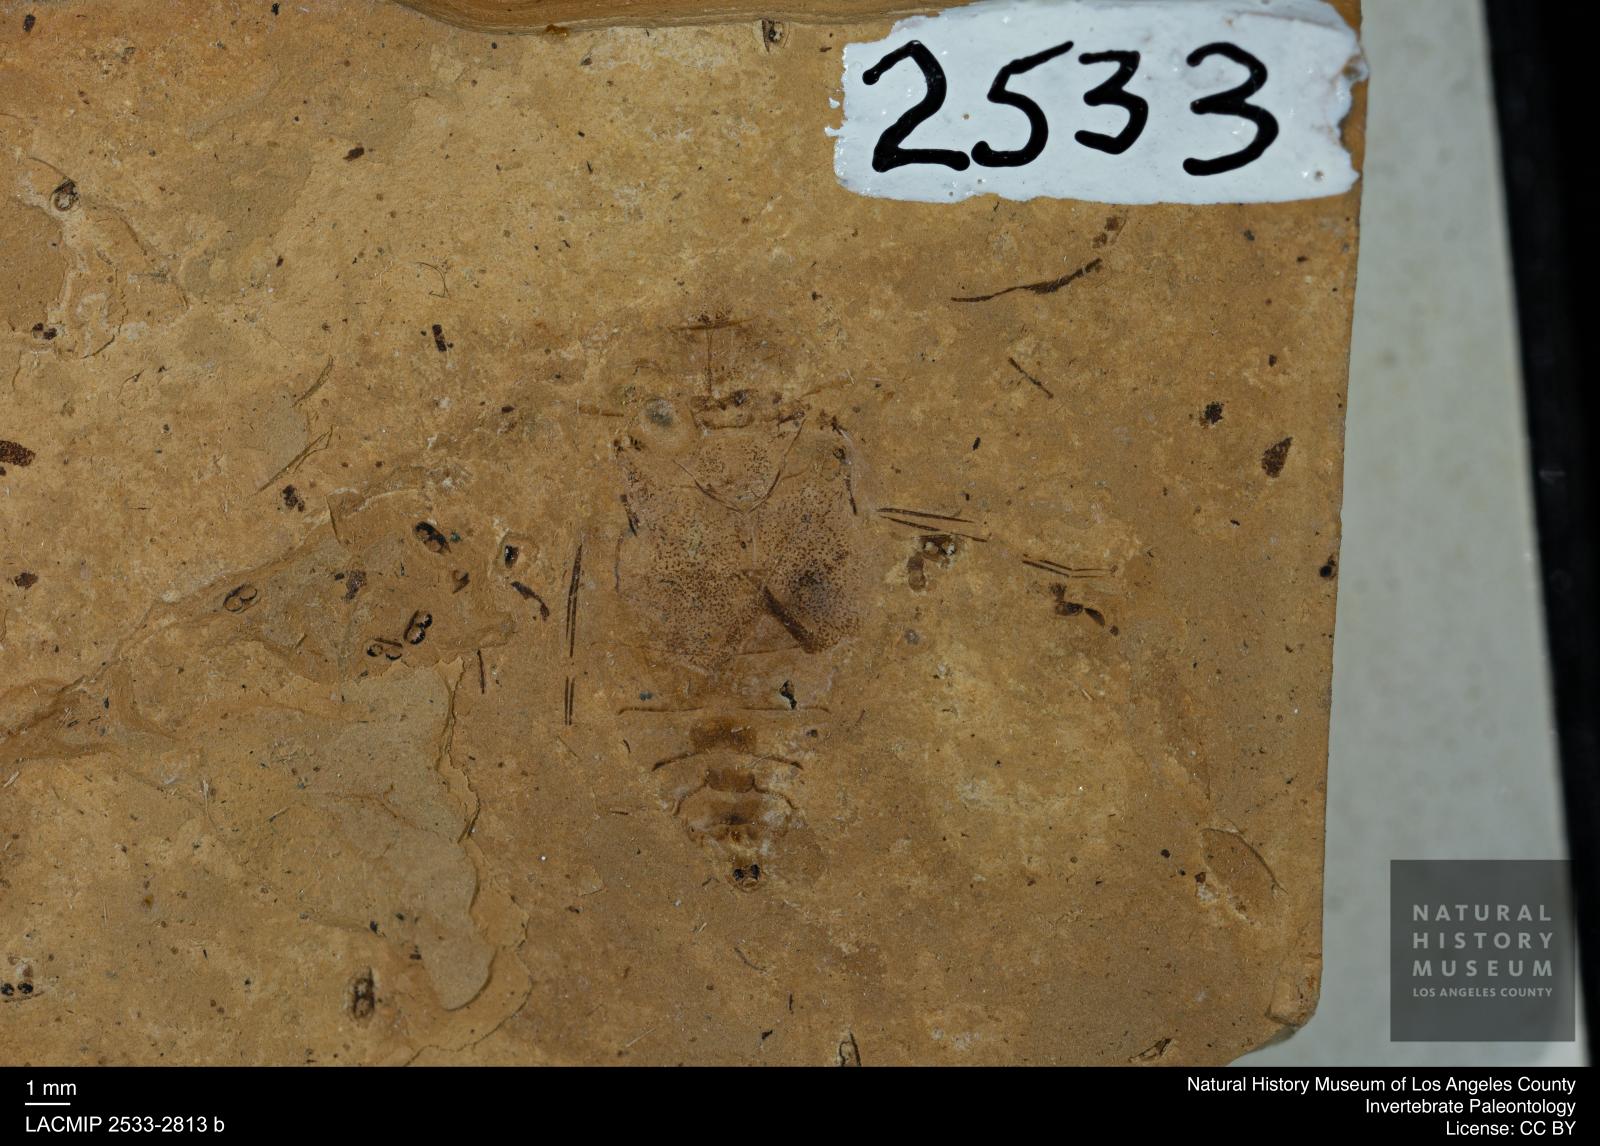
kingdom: Animalia
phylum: Arthropoda
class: Insecta
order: Hemiptera
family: Naucoridae
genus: Naucoris
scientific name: Naucoris rottensis
